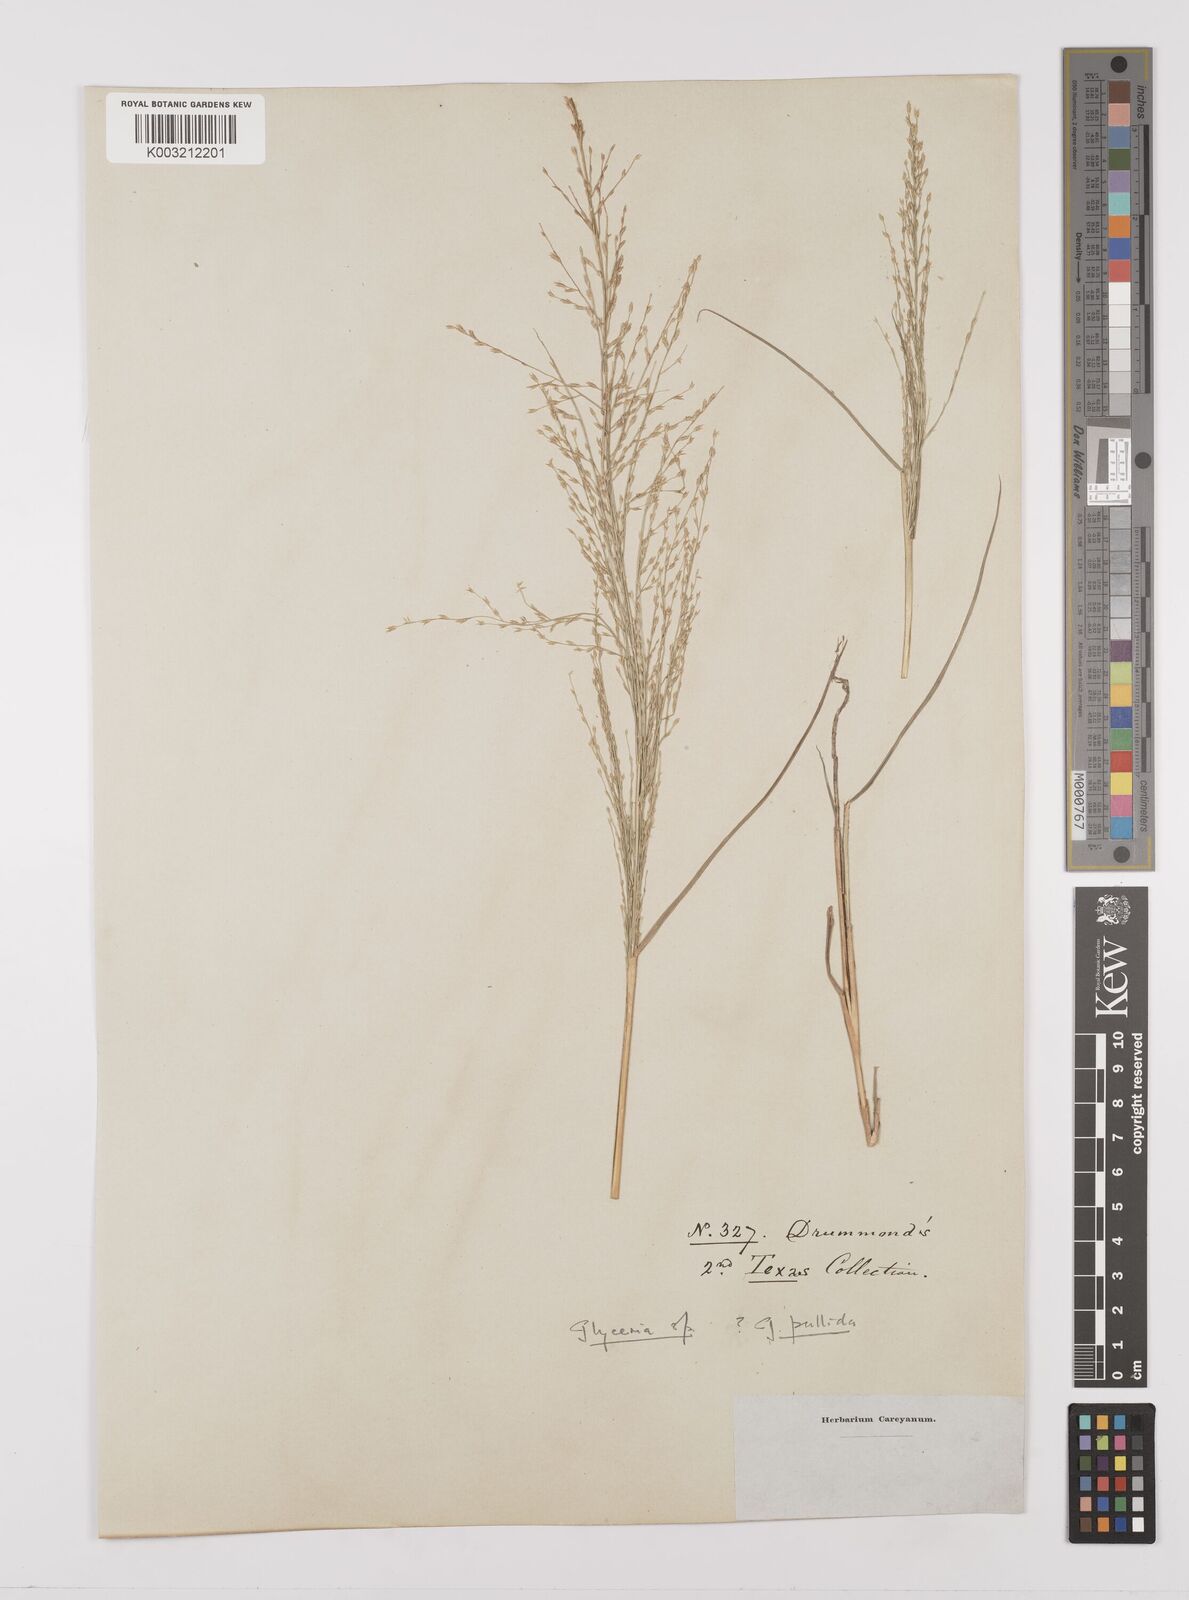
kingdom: Plantae
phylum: Tracheophyta
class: Liliopsida
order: Poales
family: Poaceae
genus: Glyceria
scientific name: Glyceria
